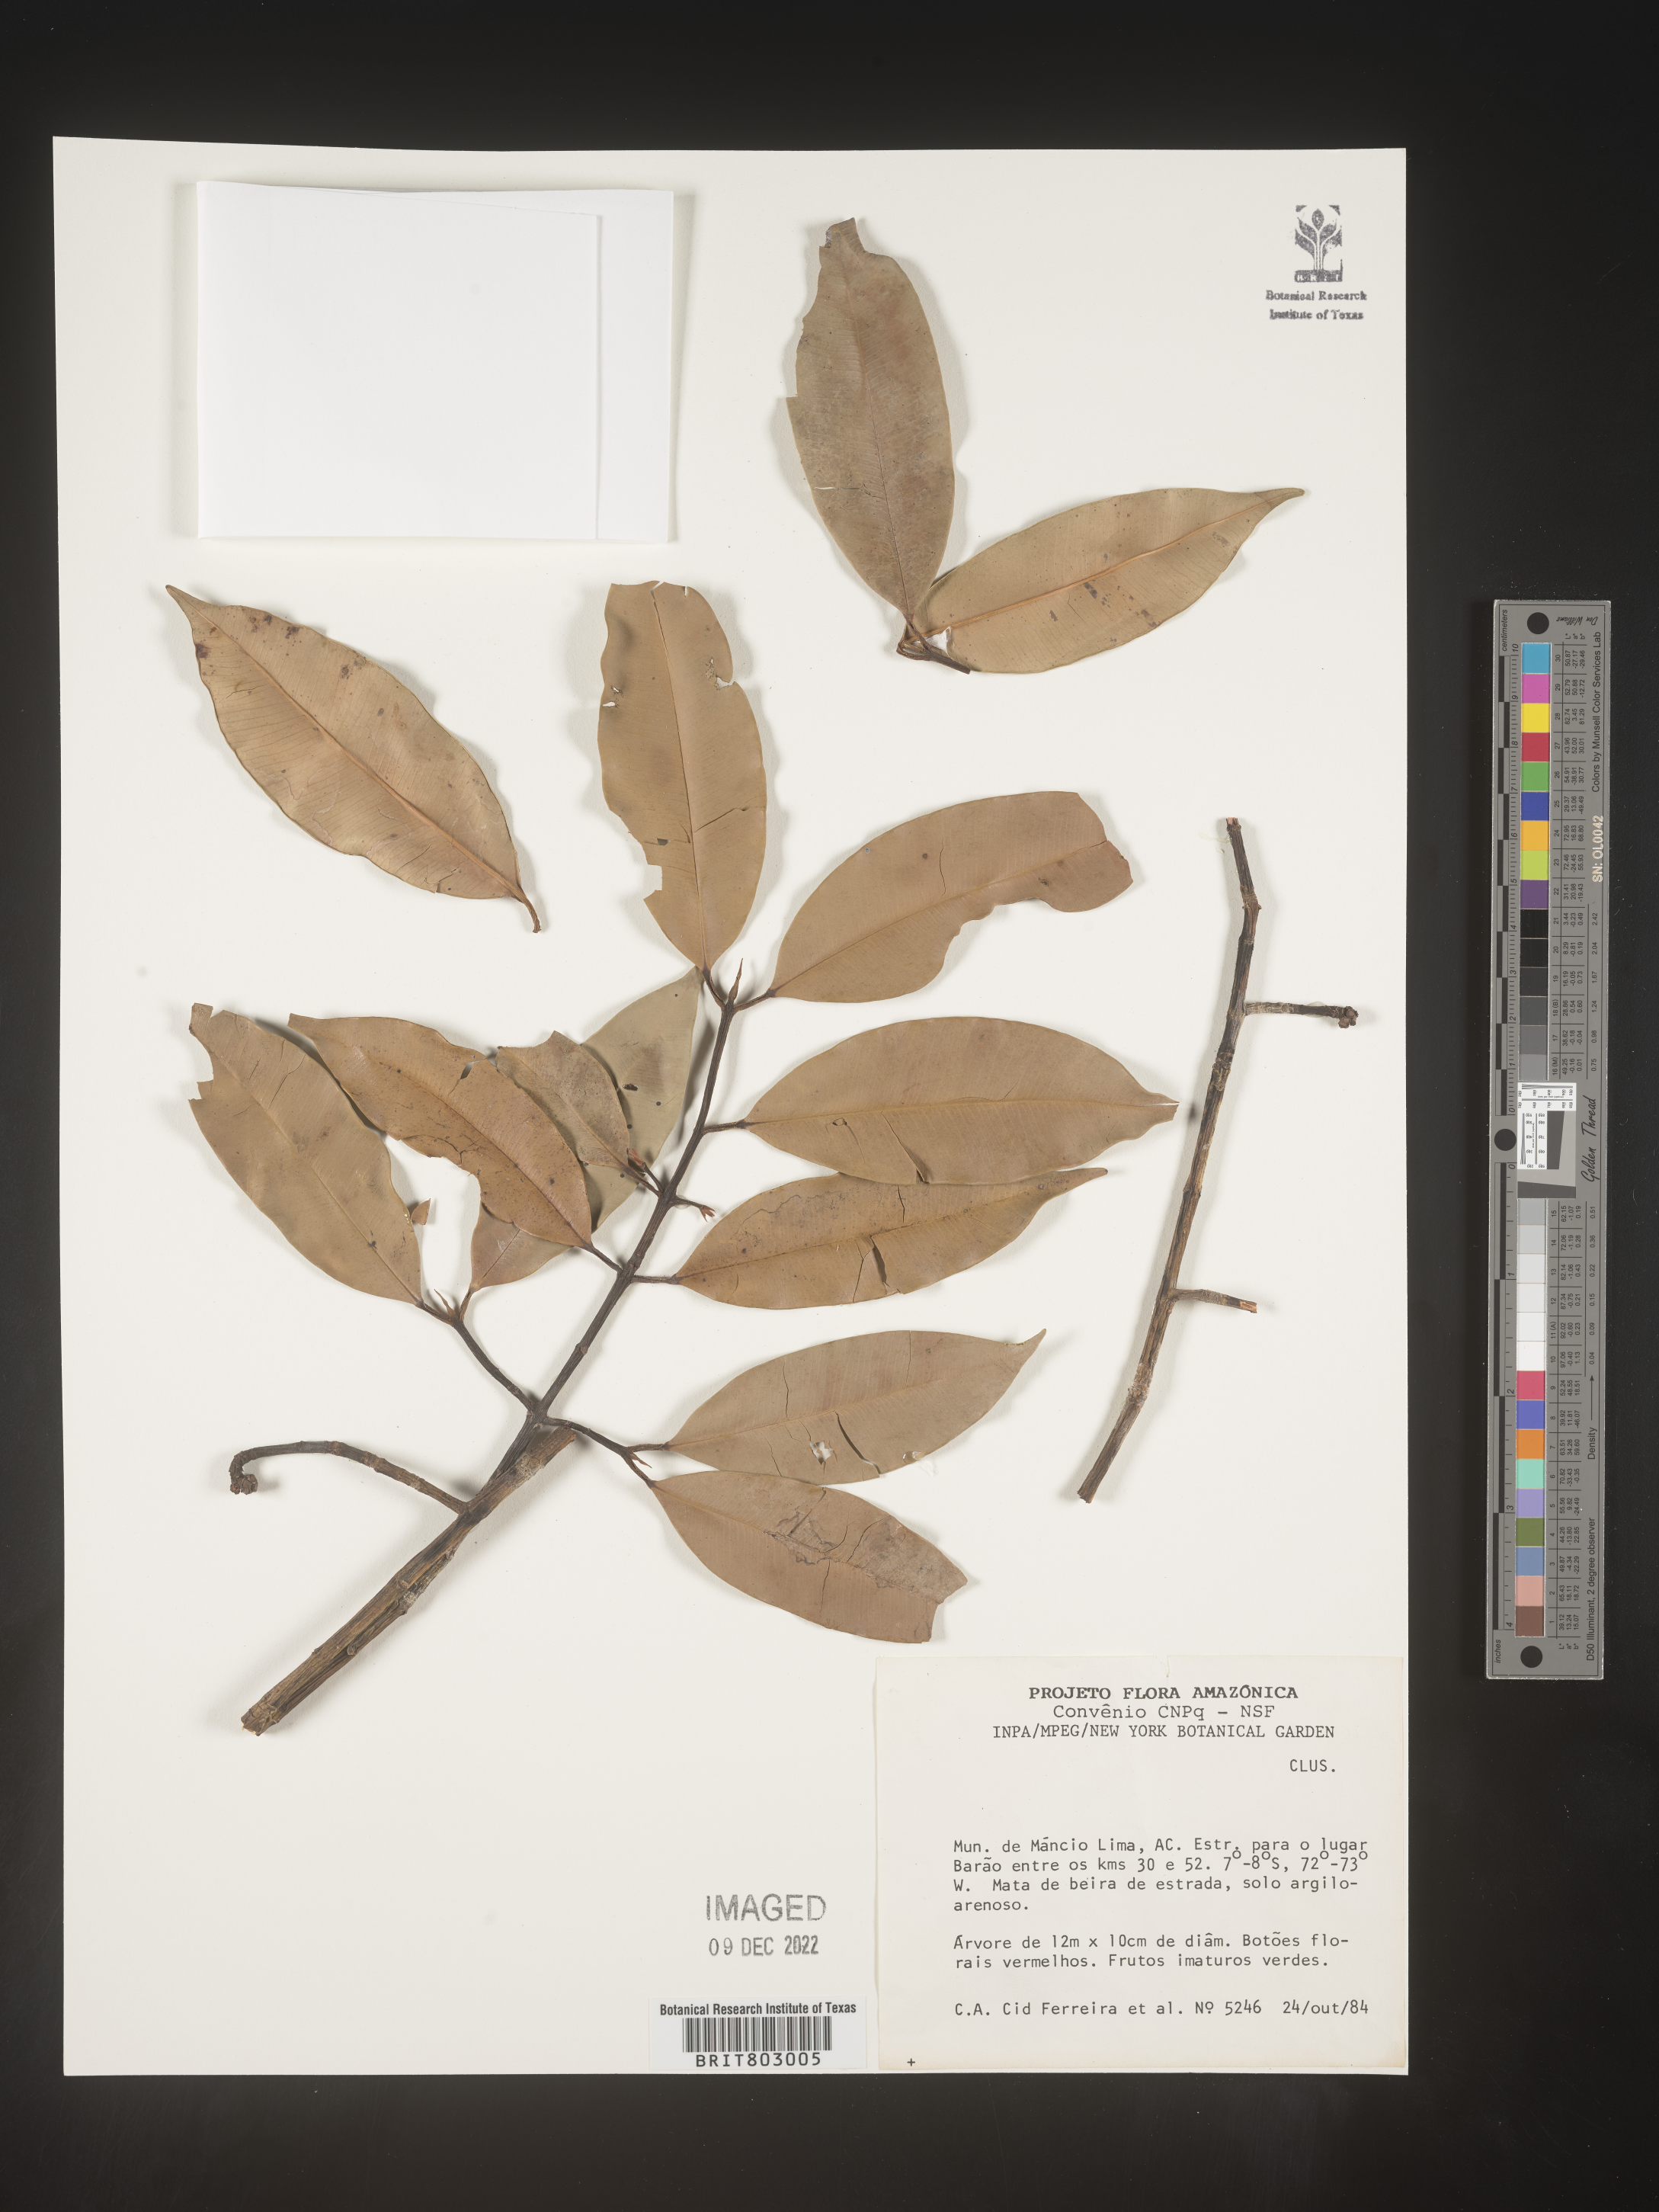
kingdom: Plantae
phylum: Tracheophyta
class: Magnoliopsida
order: Malpighiales
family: Clusiaceae
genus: Moronobea
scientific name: Moronobea
